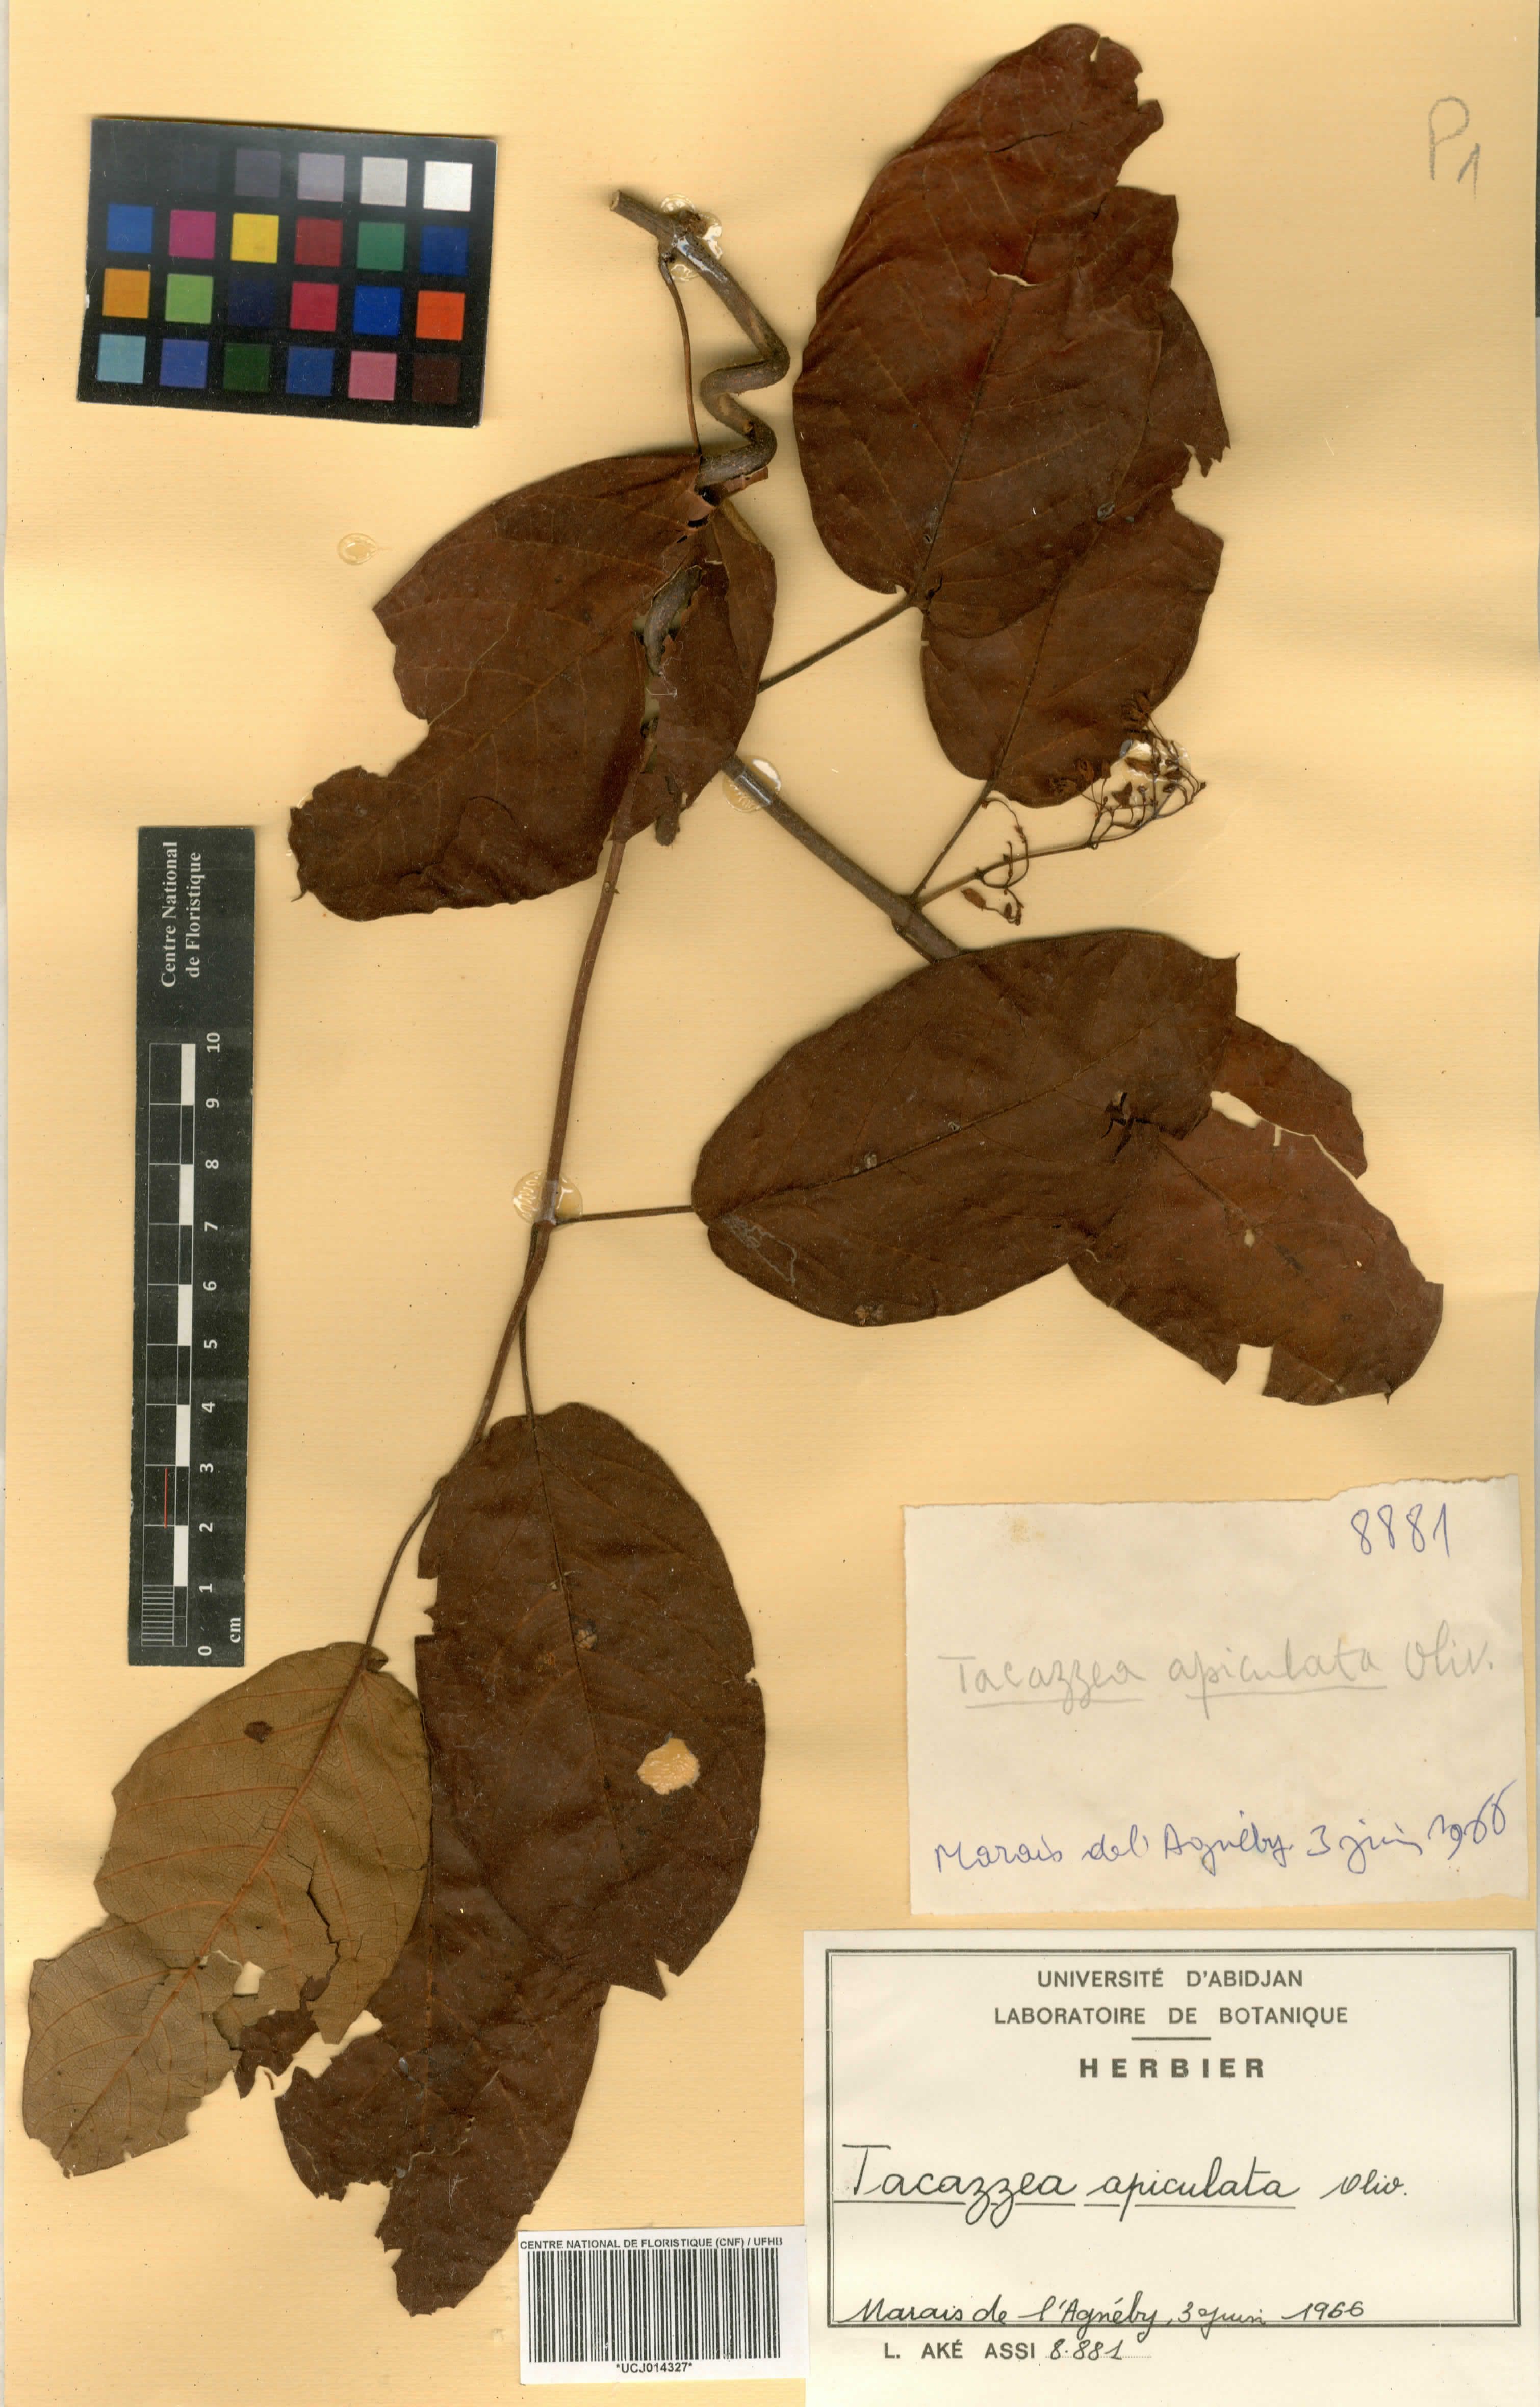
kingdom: Plantae
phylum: Tracheophyta
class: Magnoliopsida
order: Gentianales
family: Apocynaceae
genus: Tacazzea
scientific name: Tacazzea apiculata
